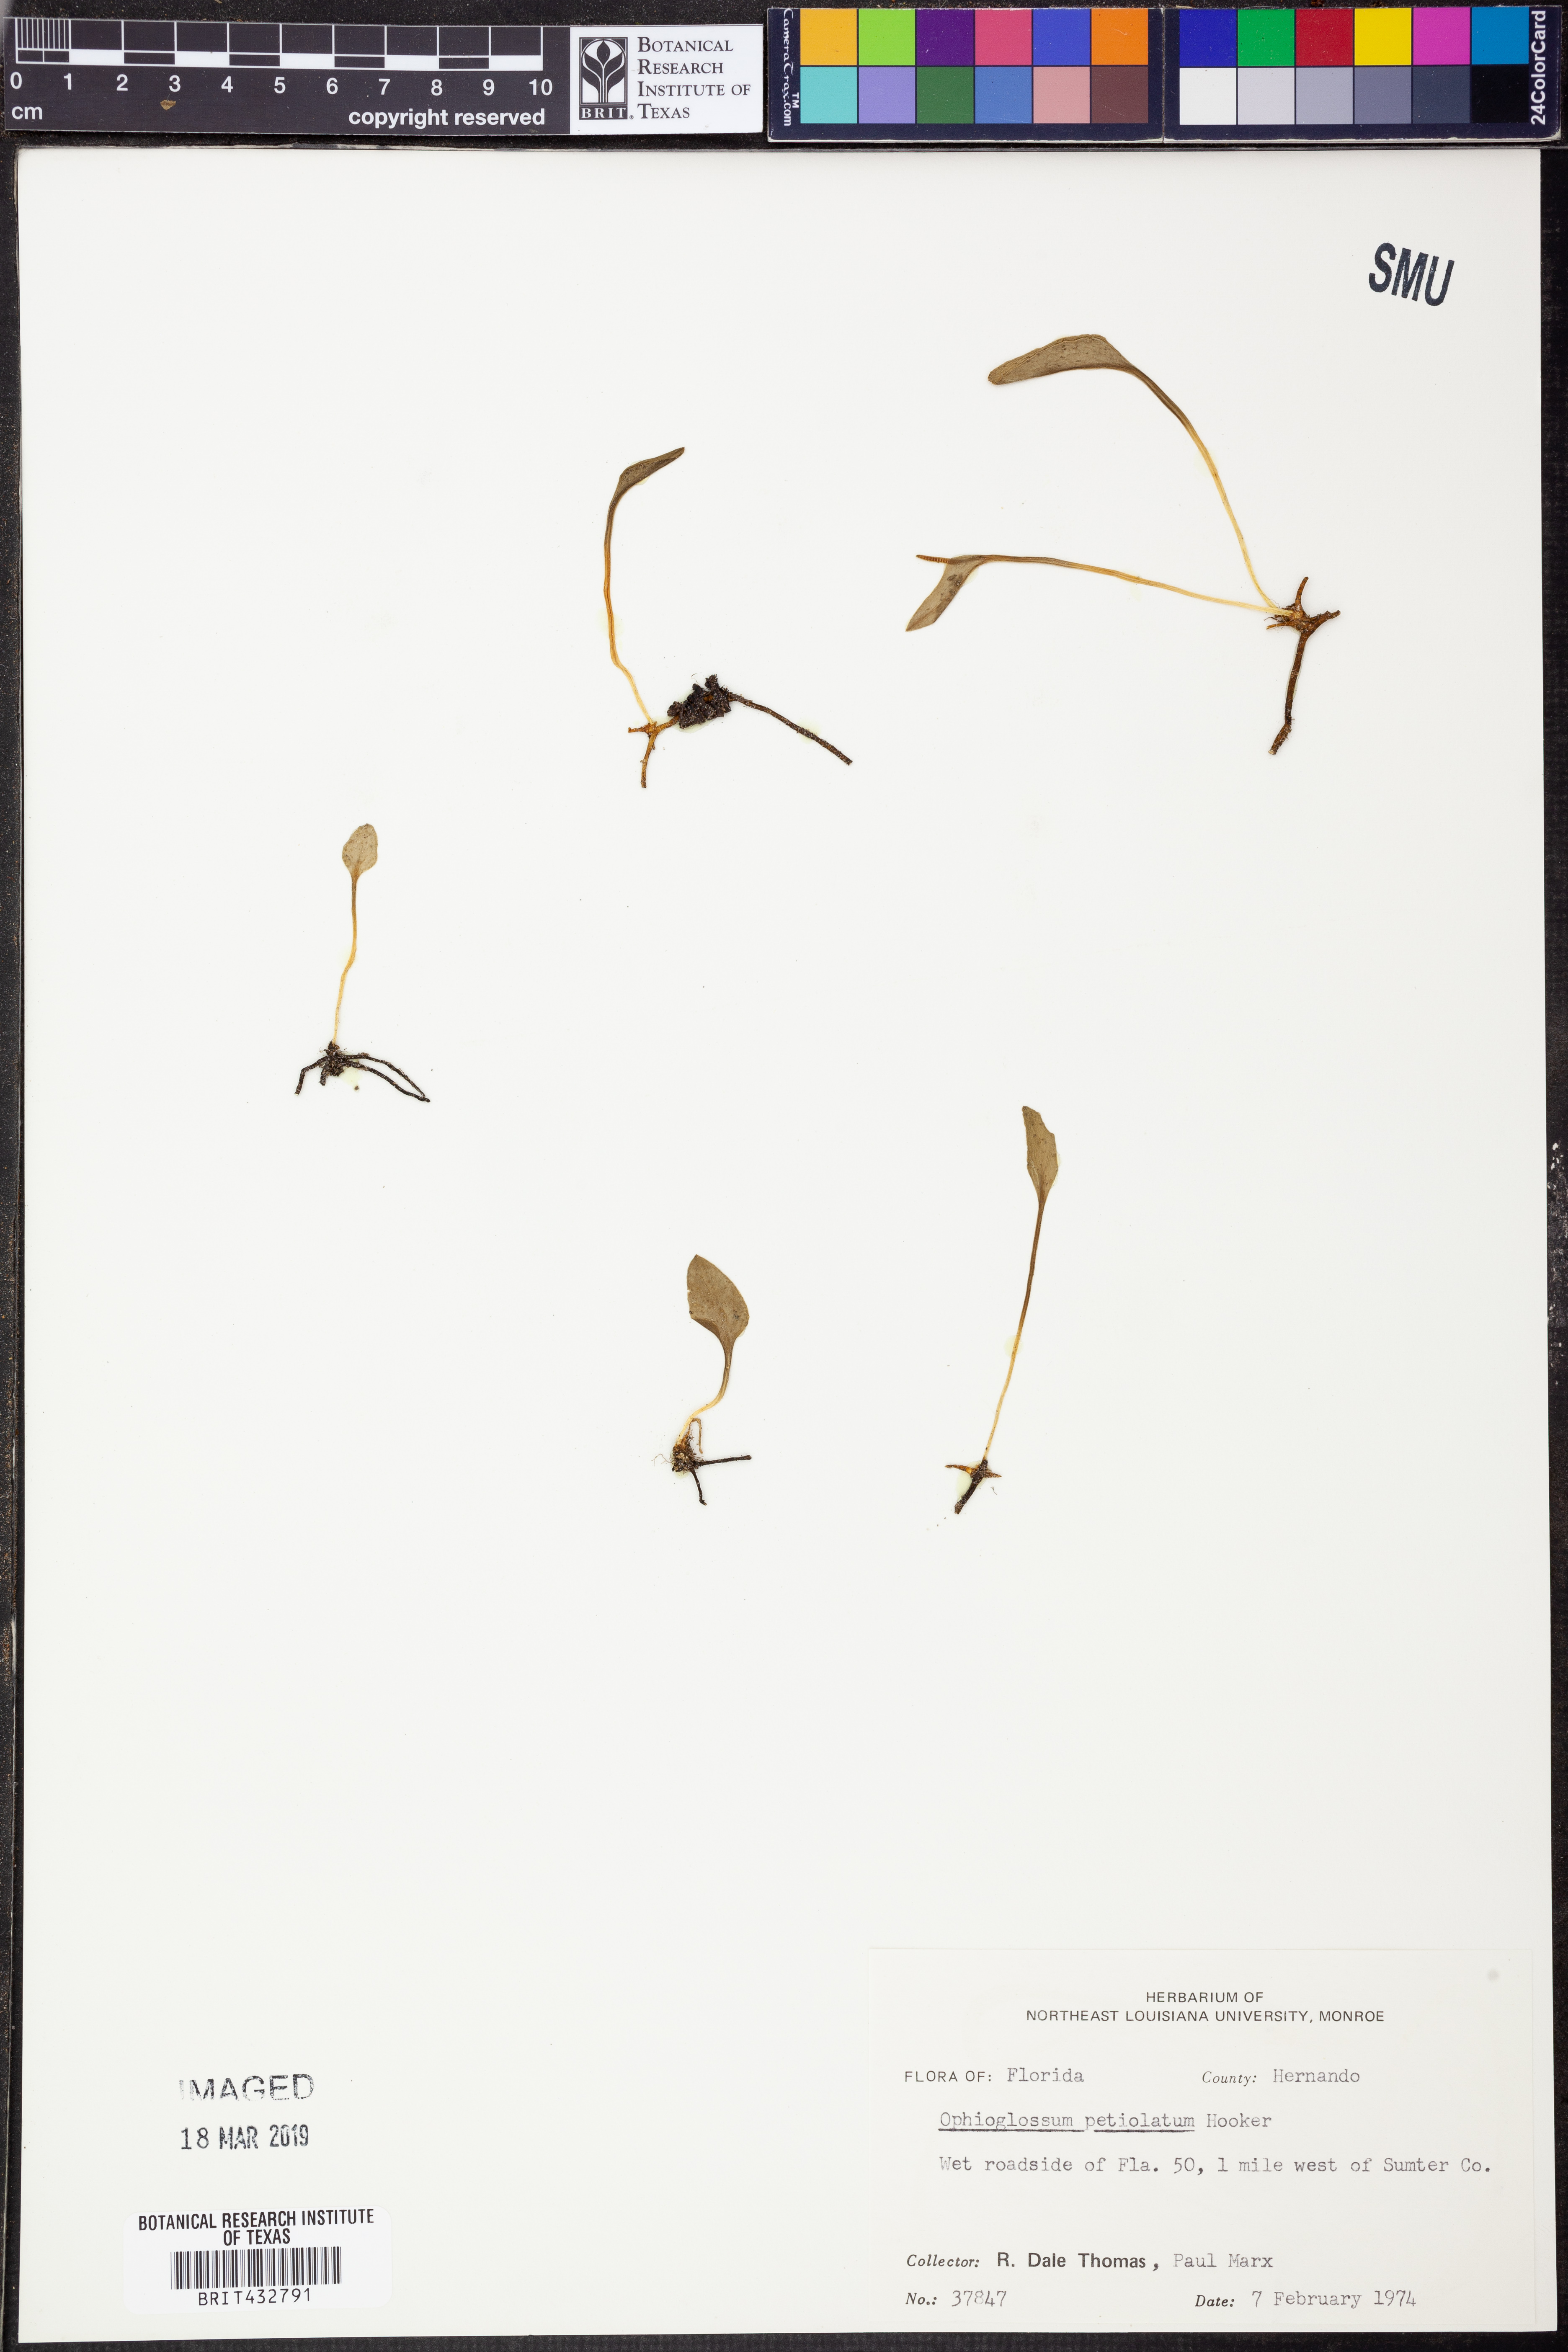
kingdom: Plantae
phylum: Tracheophyta
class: Polypodiopsida
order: Ophioglossales
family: Ophioglossaceae
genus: Ophioglossum
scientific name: Ophioglossum petiolatum
